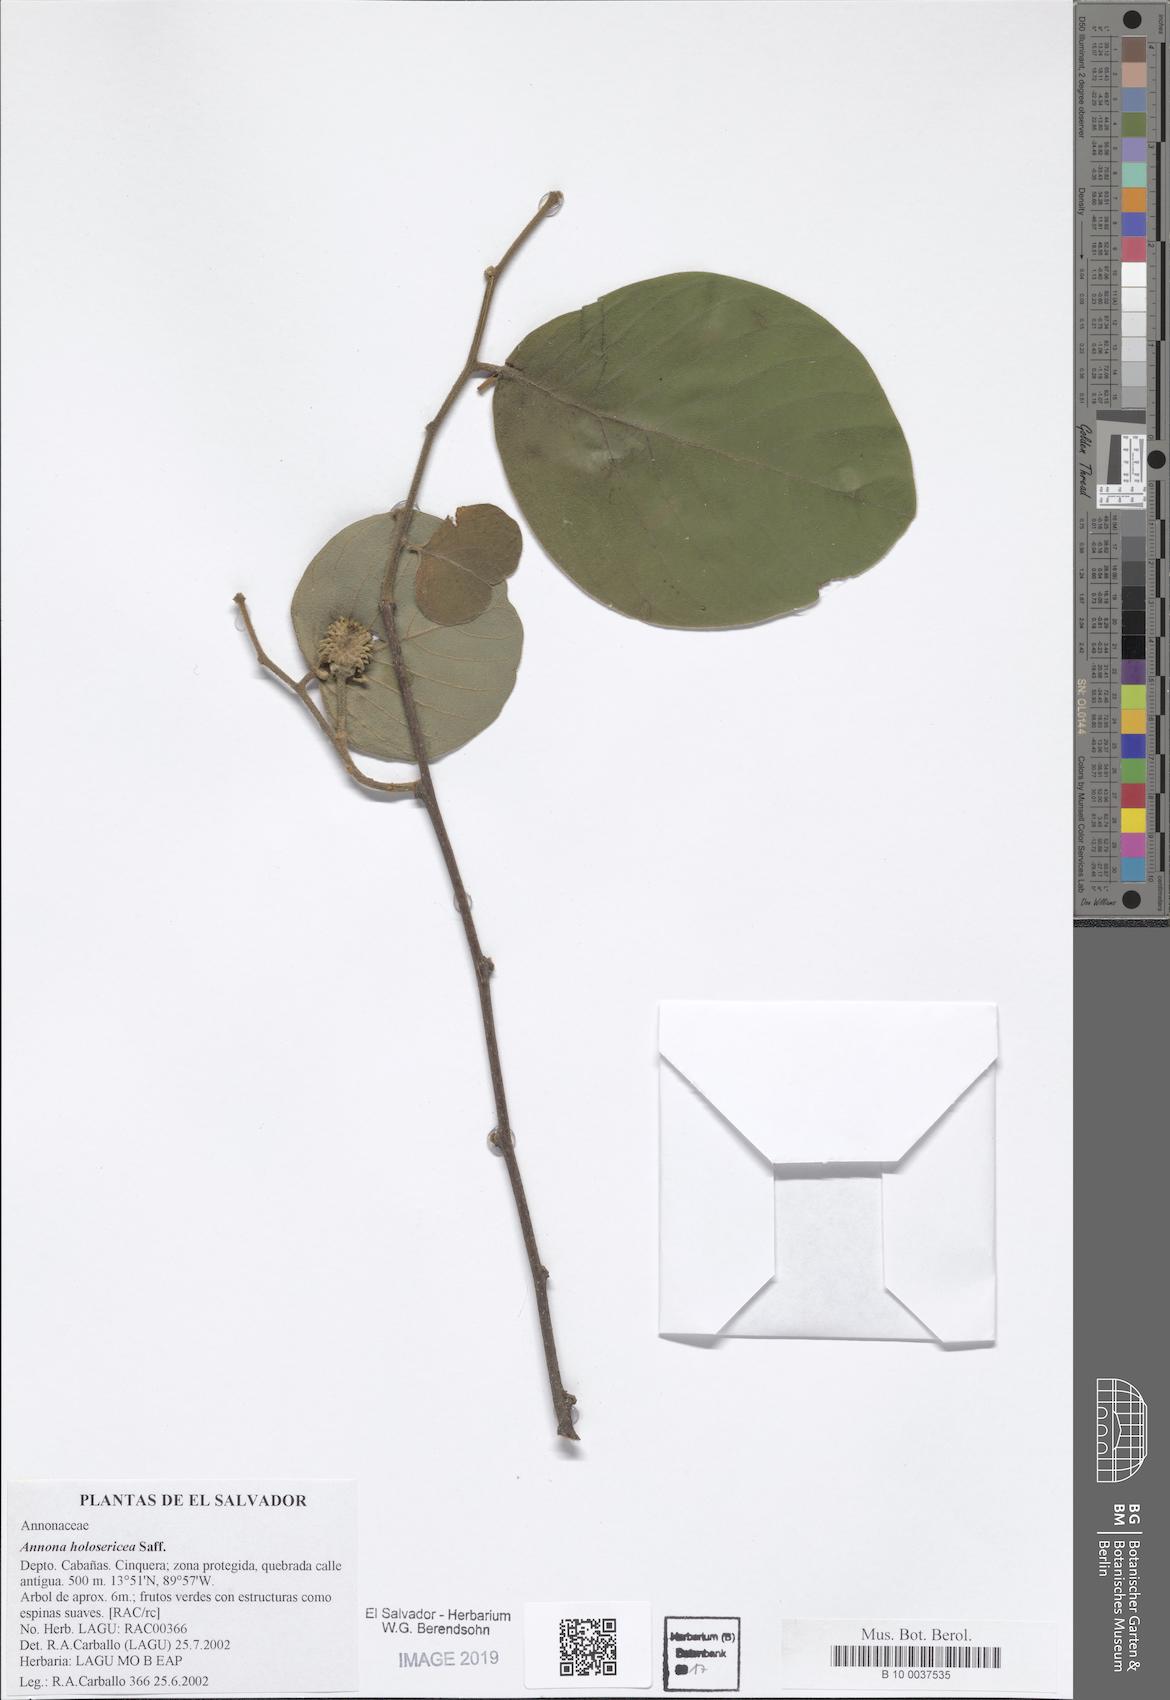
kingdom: Plantae
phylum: Tracheophyta
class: Magnoliopsida
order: Magnoliales
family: Annonaceae
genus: Annona
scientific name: Annona holosericea
